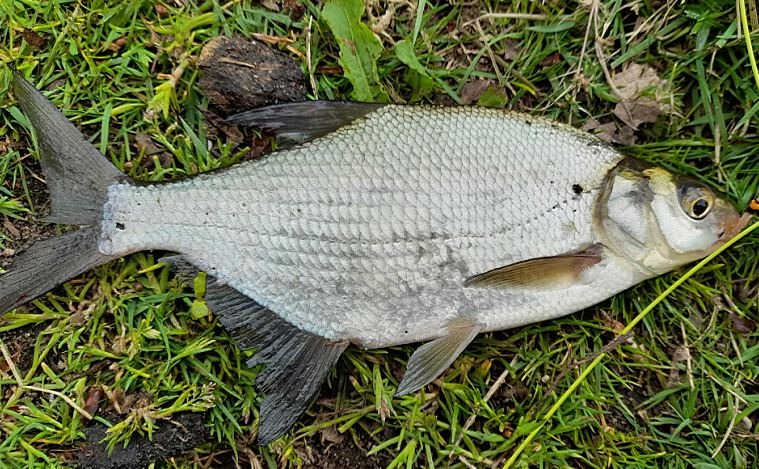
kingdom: Animalia
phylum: Chordata
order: Cypriniformes
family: Cyprinidae
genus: Abramis
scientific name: Abramis brama
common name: Brasen
